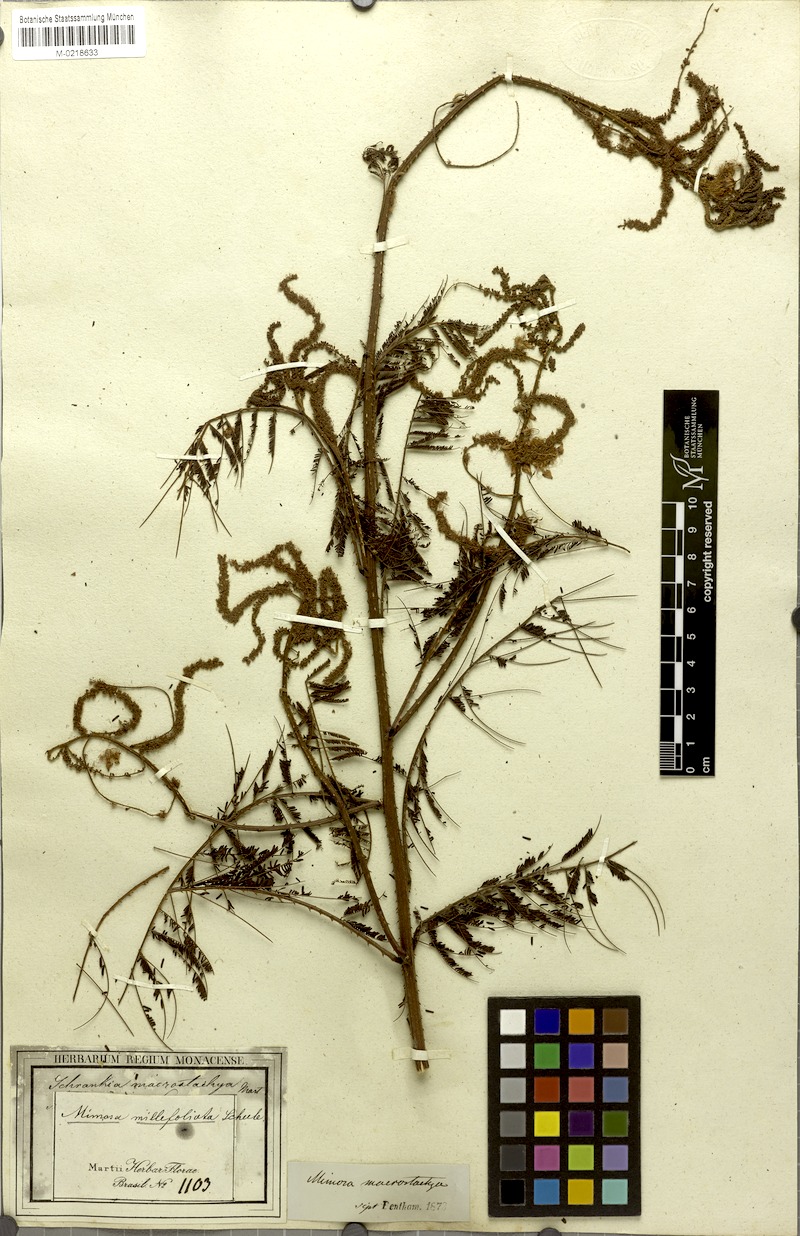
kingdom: Plantae
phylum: Tracheophyta
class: Magnoliopsida
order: Fabales
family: Fabaceae
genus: Mimosa
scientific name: Mimosa invisa
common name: Creeping sensitive-plant
